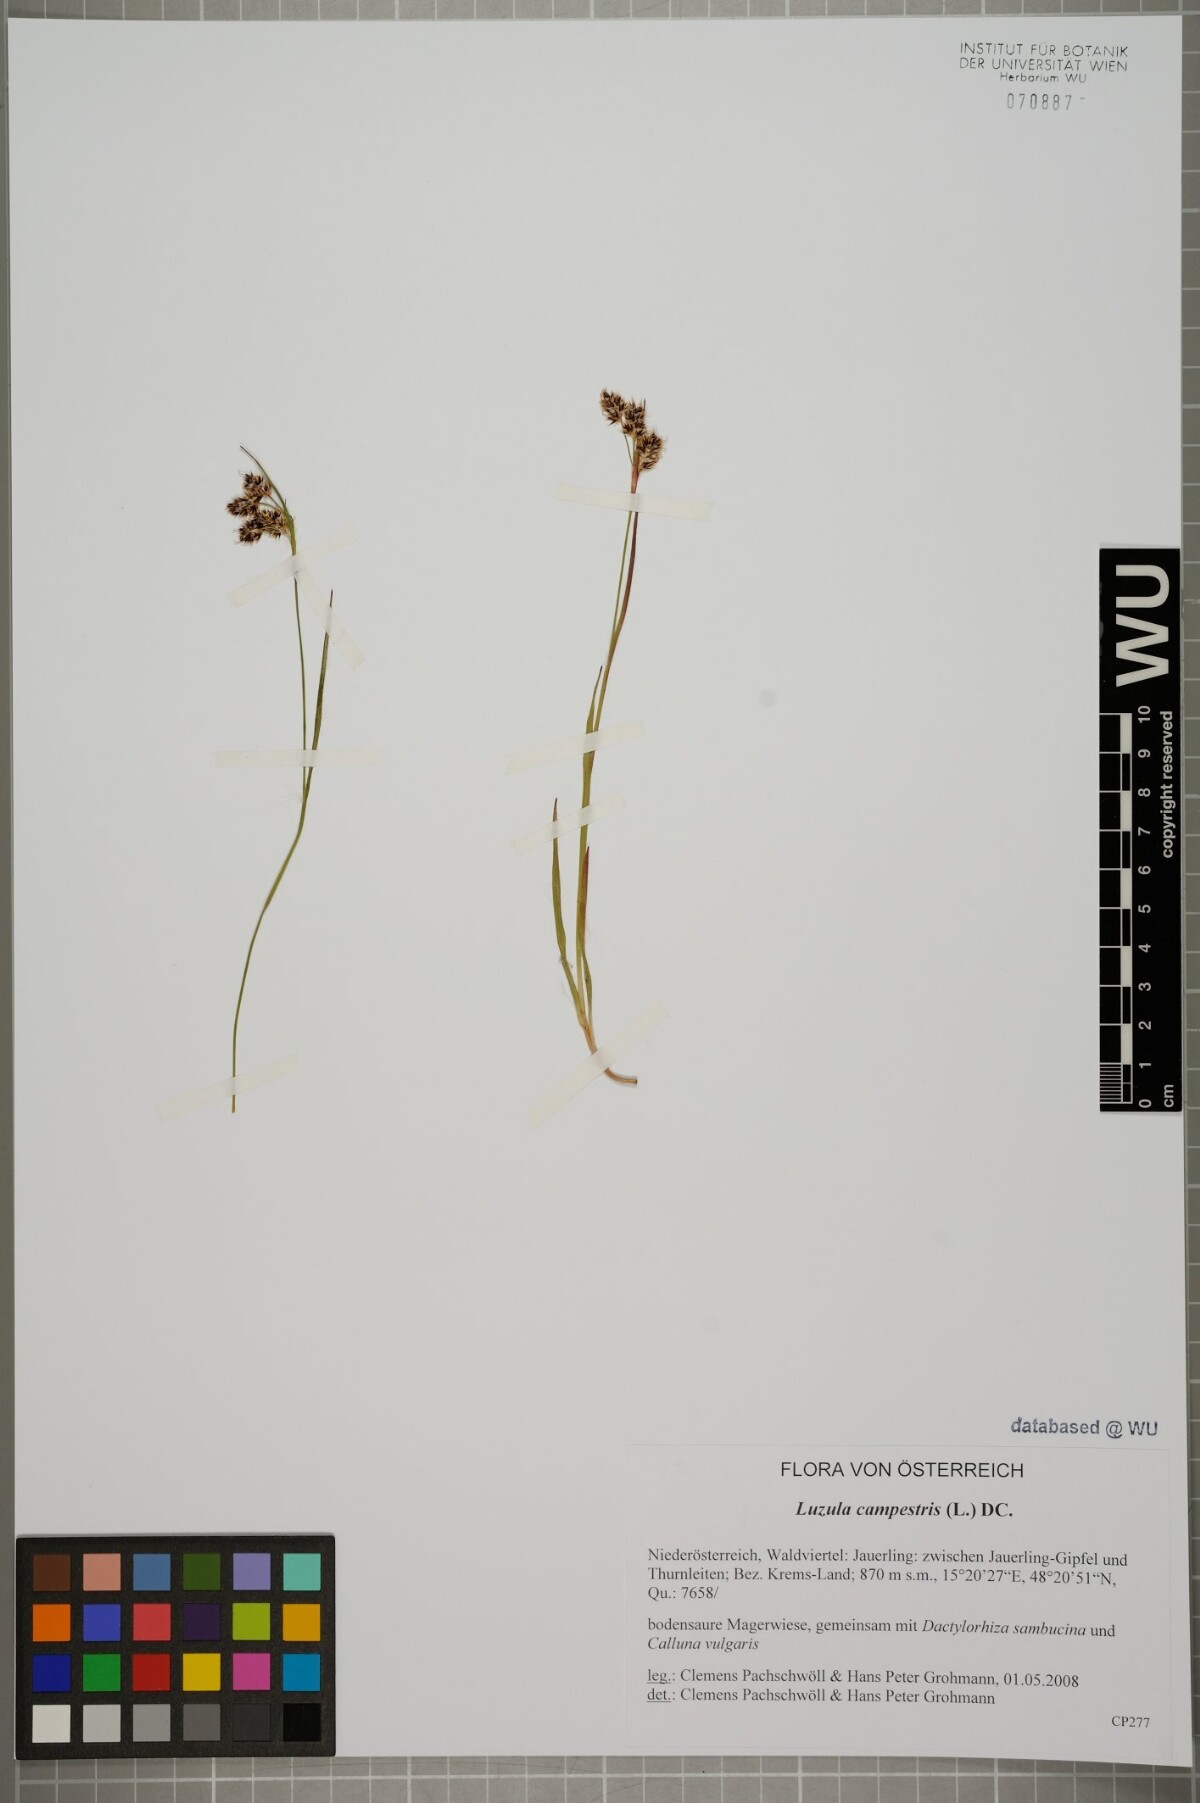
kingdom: Plantae
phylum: Tracheophyta
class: Liliopsida
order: Poales
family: Juncaceae
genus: Luzula
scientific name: Luzula campestris
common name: Field wood-rush
